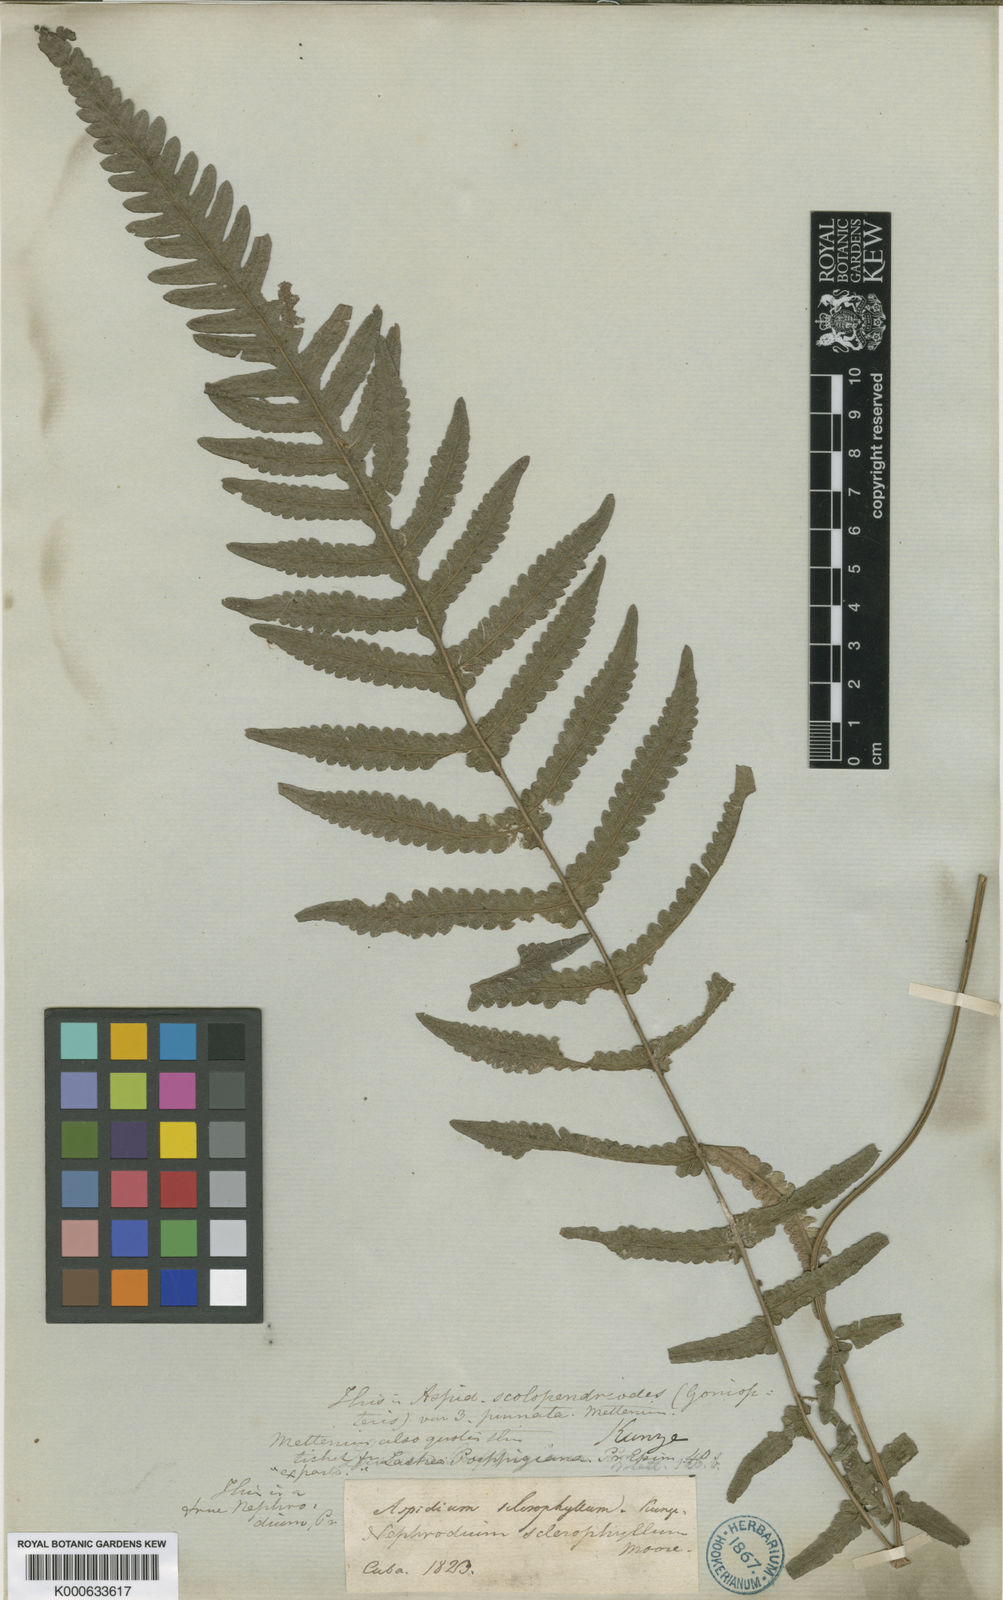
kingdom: Plantae
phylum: Tracheophyta
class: Polypodiopsida
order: Polypodiales
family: Thelypteridaceae
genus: Goniopteris
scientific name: Goniopteris retroflexa
